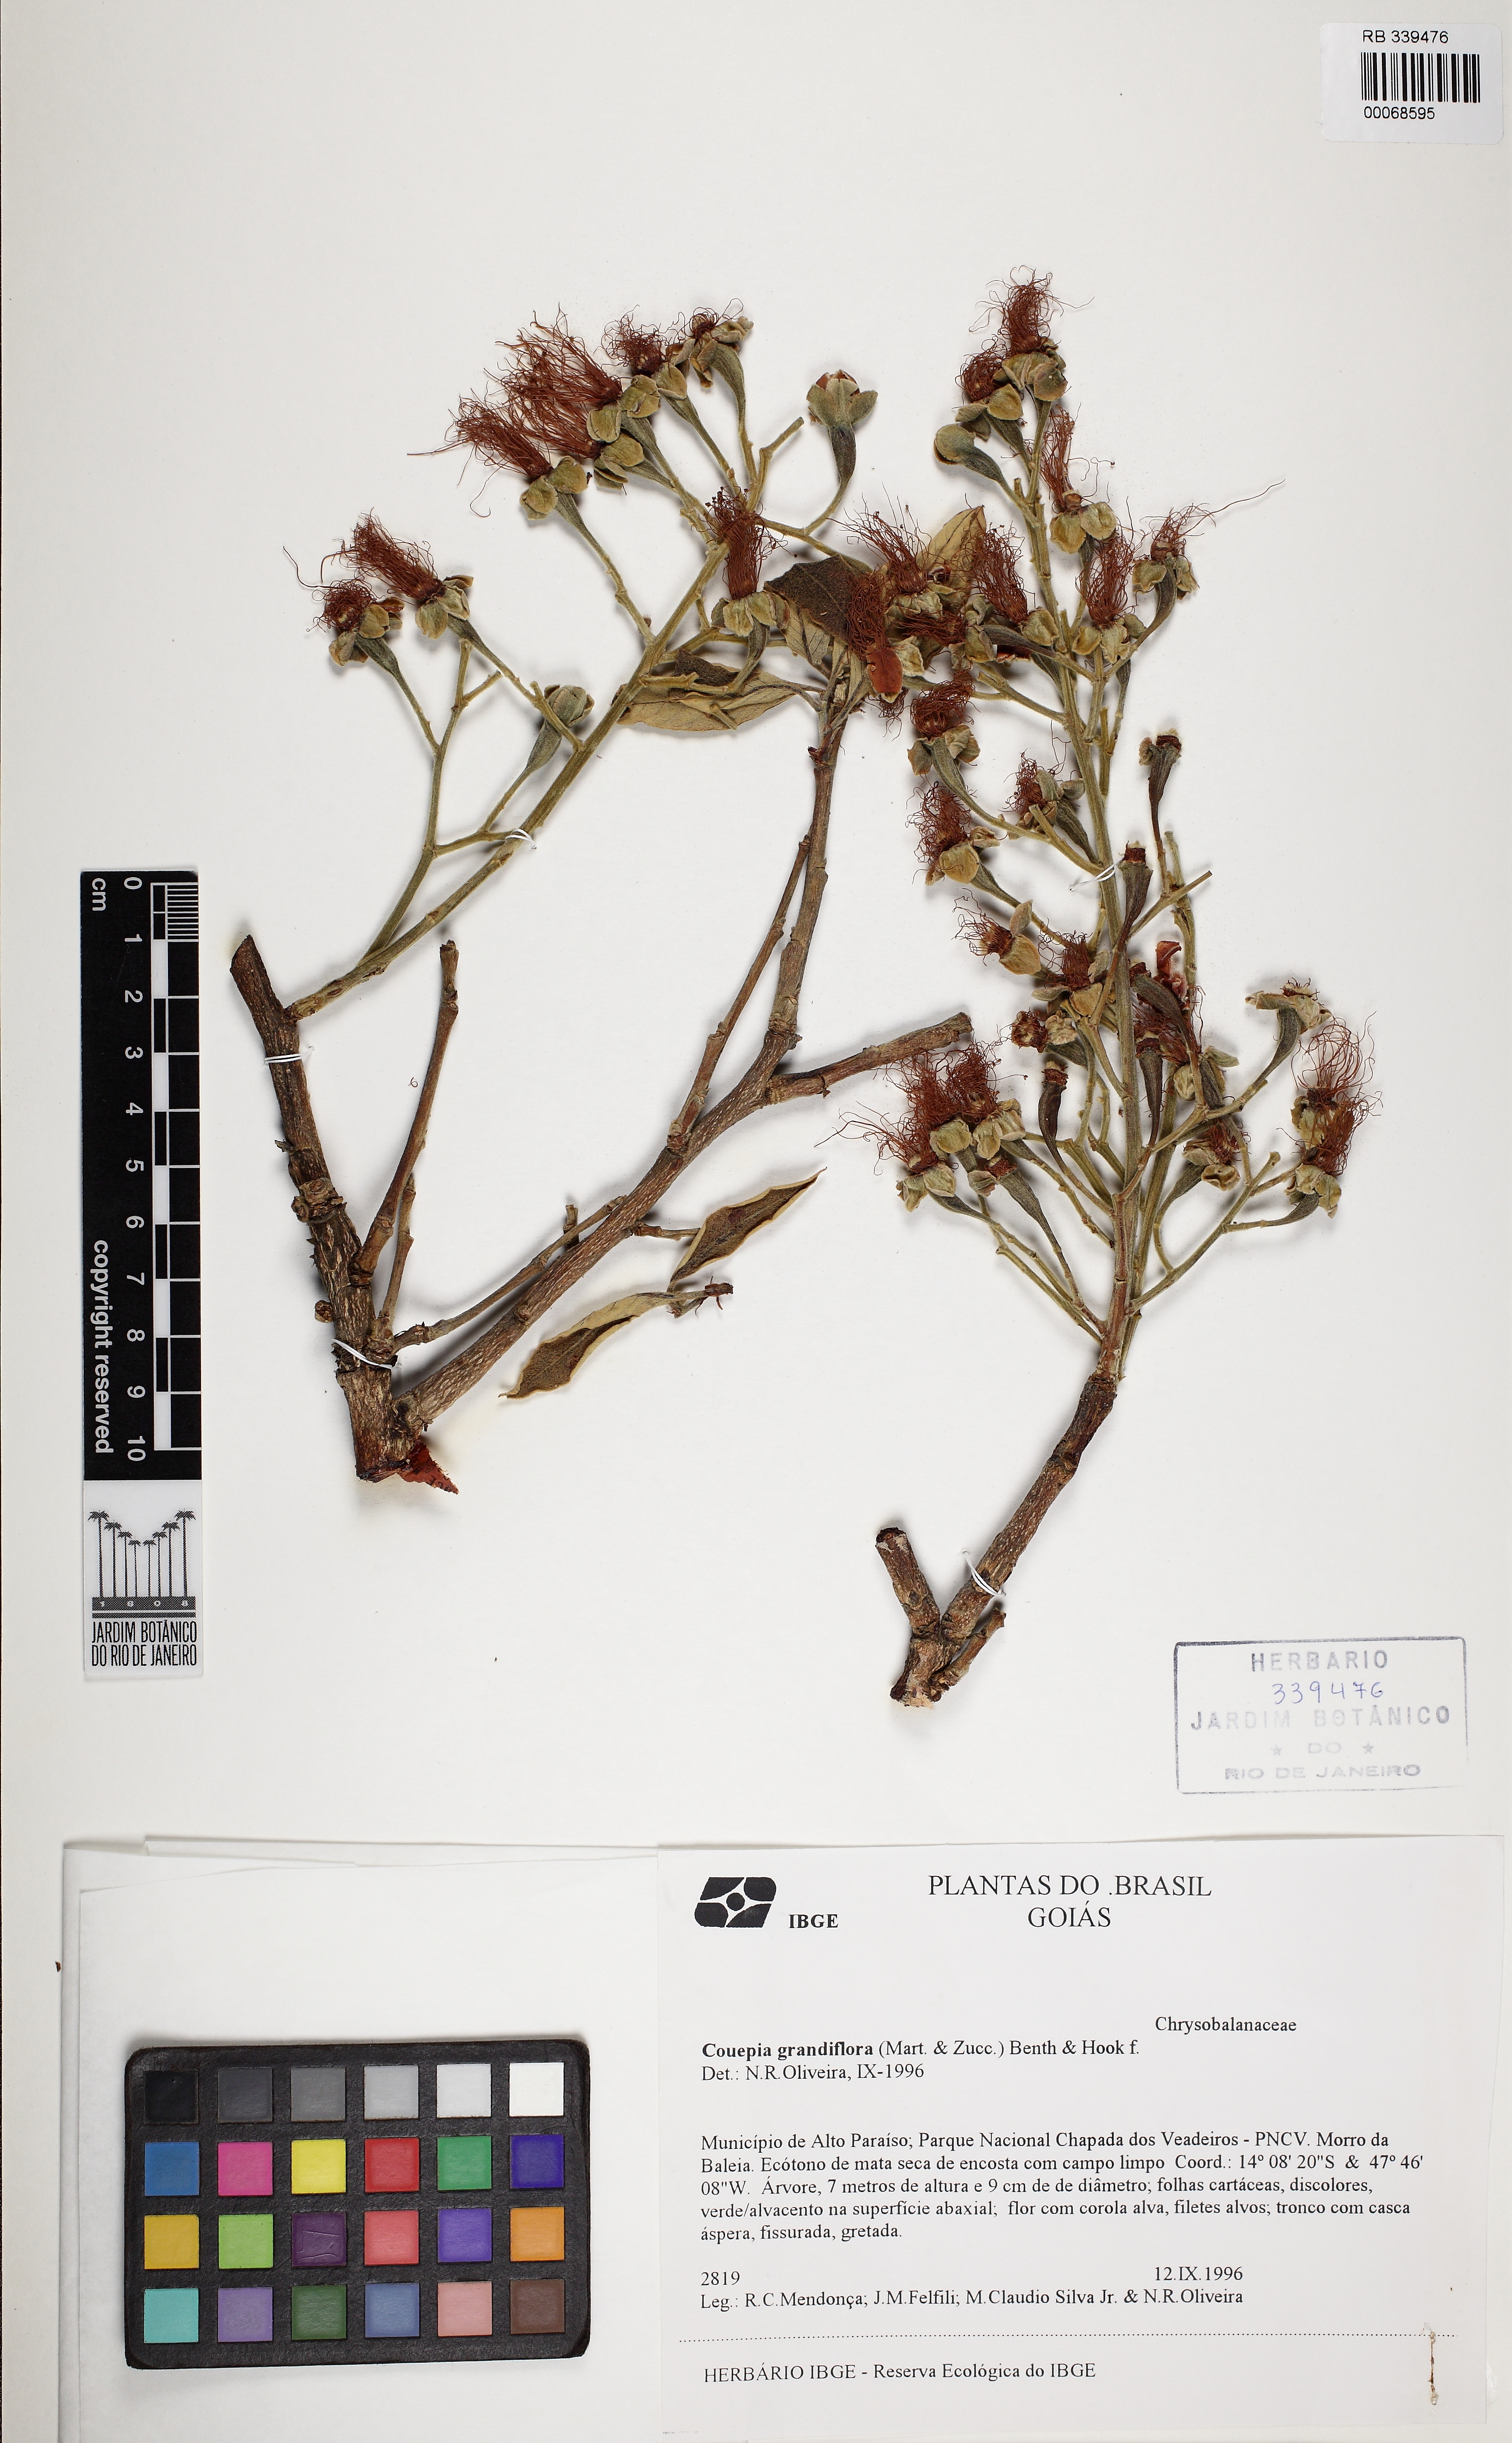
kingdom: Plantae
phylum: Tracheophyta
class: Magnoliopsida
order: Malpighiales
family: Chrysobalanaceae
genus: Couepia
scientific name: Couepia grandiflora
